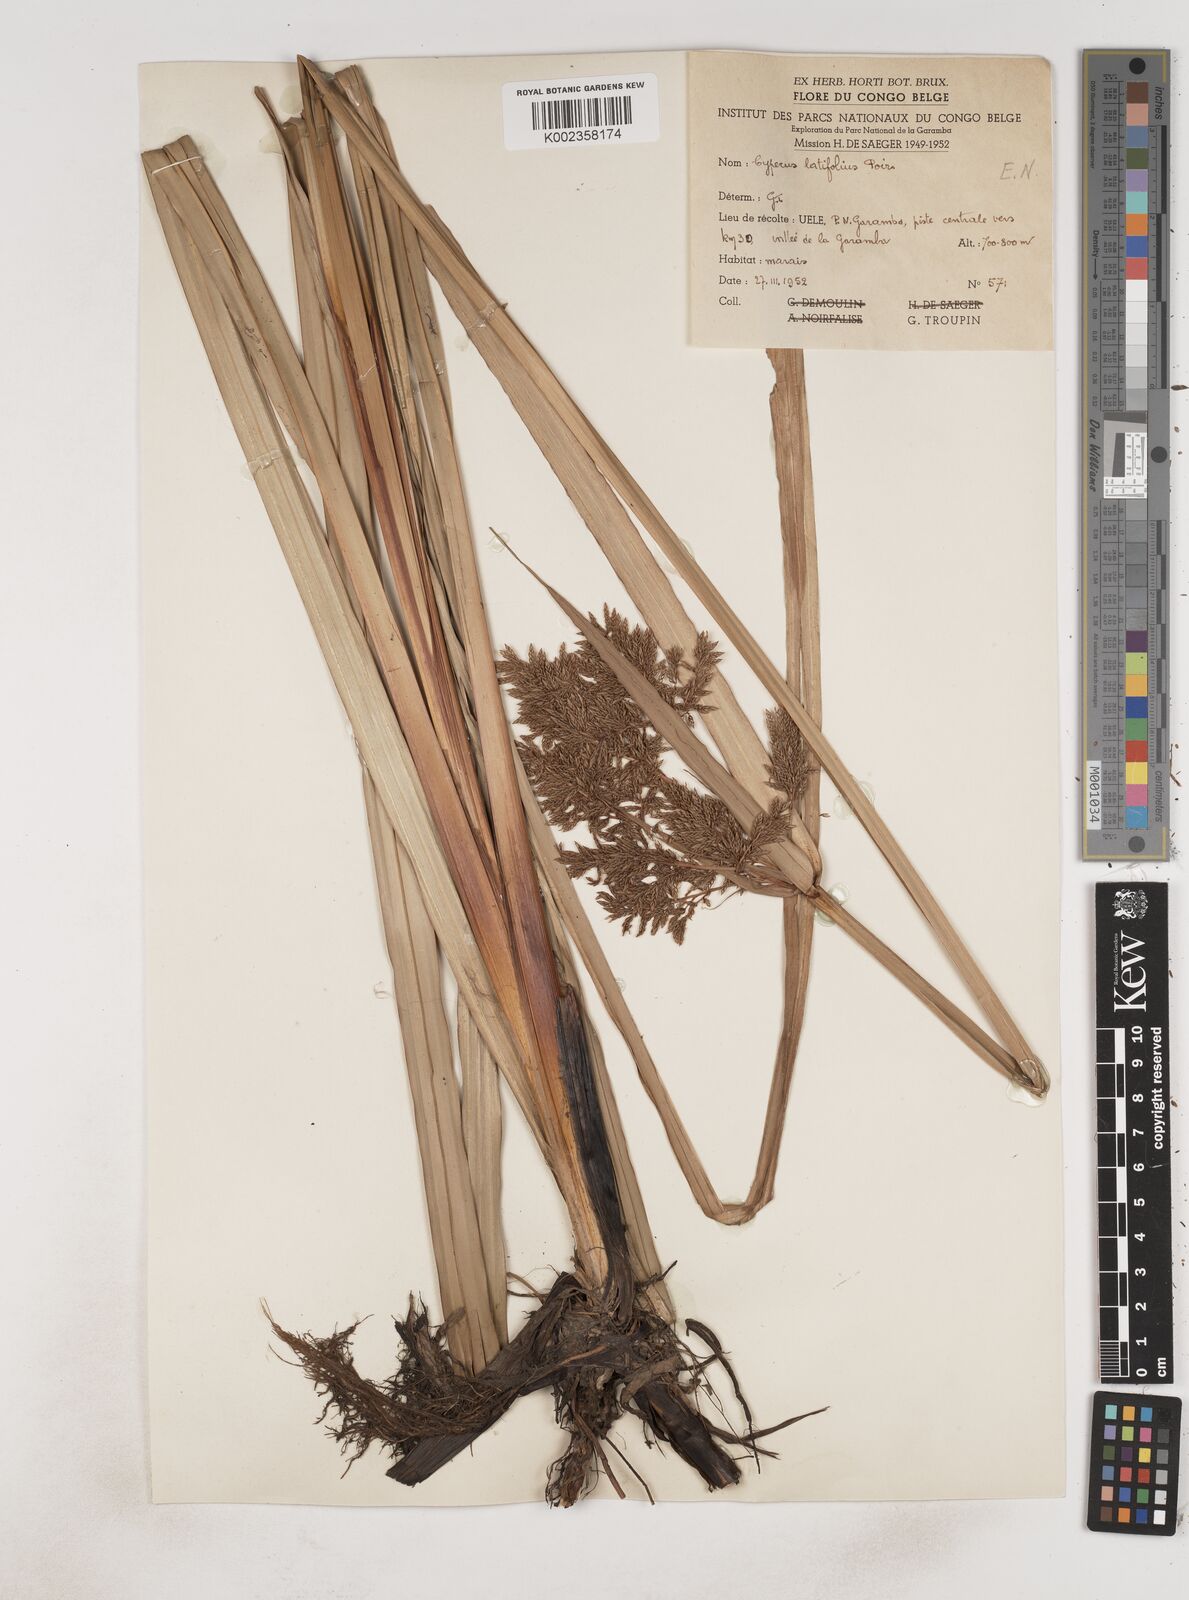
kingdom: Plantae
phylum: Tracheophyta
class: Liliopsida
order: Poales
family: Cyperaceae
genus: Cyperus
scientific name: Cyperus latifolius
